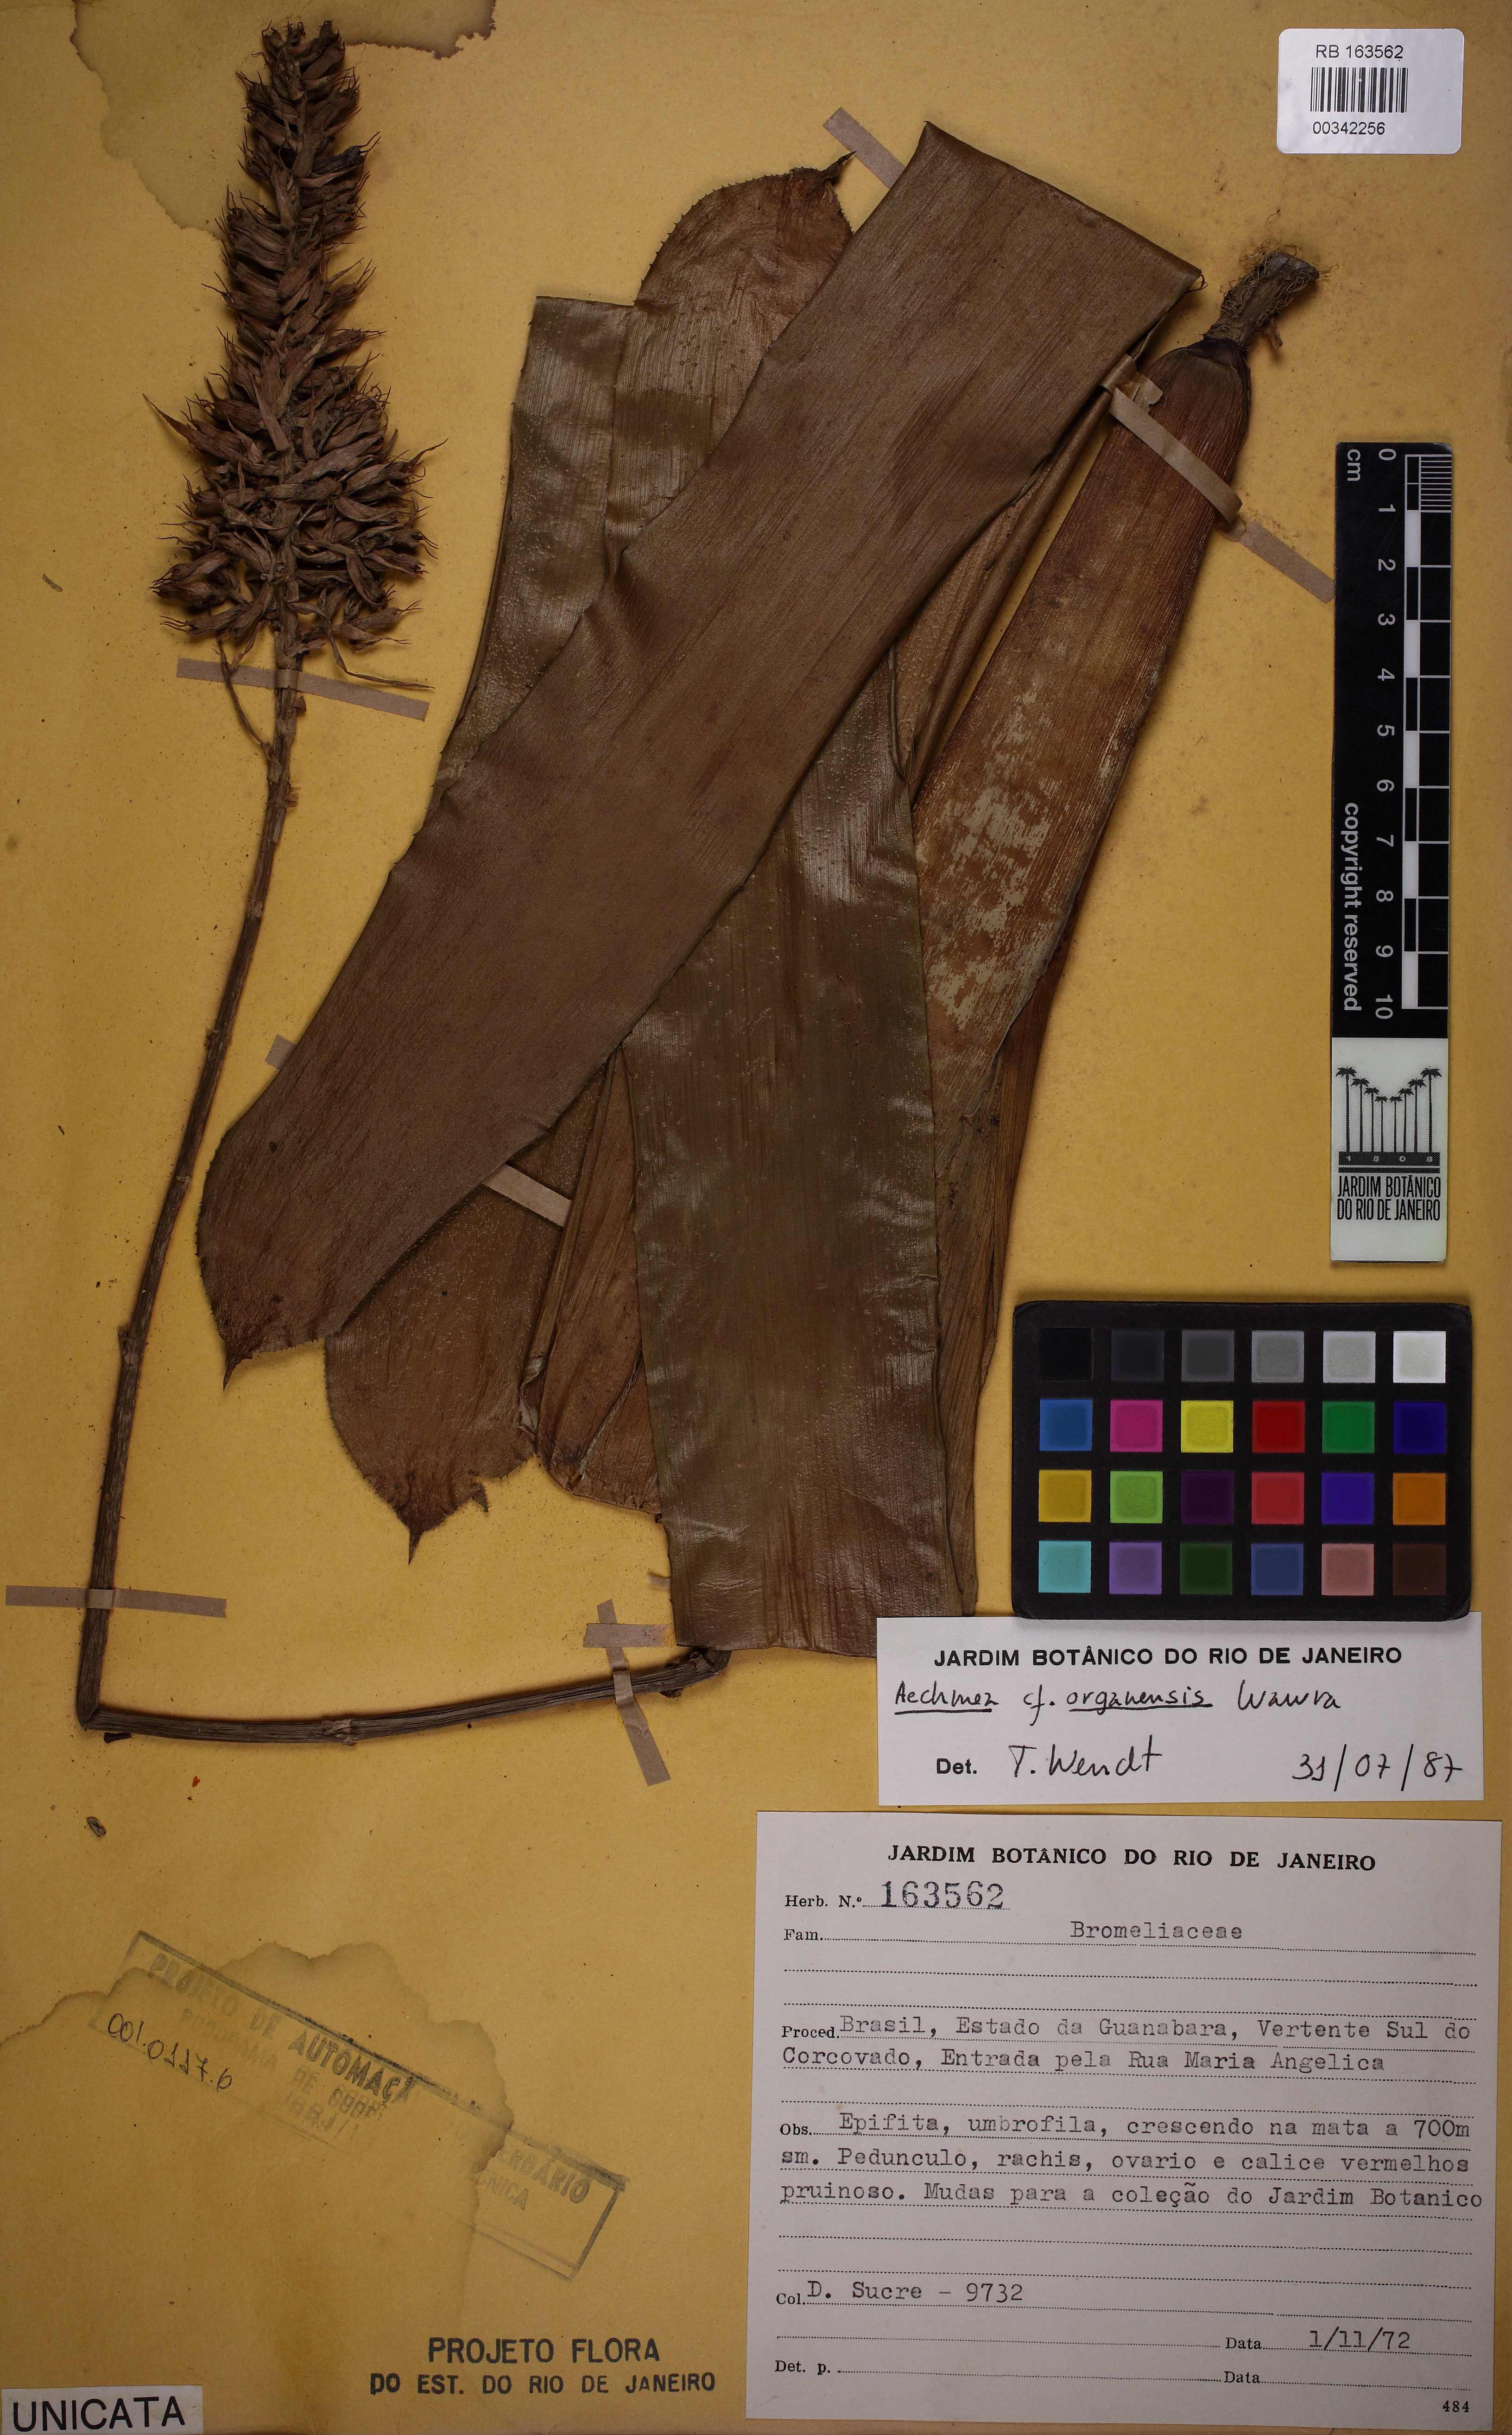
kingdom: Plantae
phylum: Tracheophyta
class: Liliopsida
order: Poales
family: Bromeliaceae
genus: Aechmea
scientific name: Aechmea coelestis
